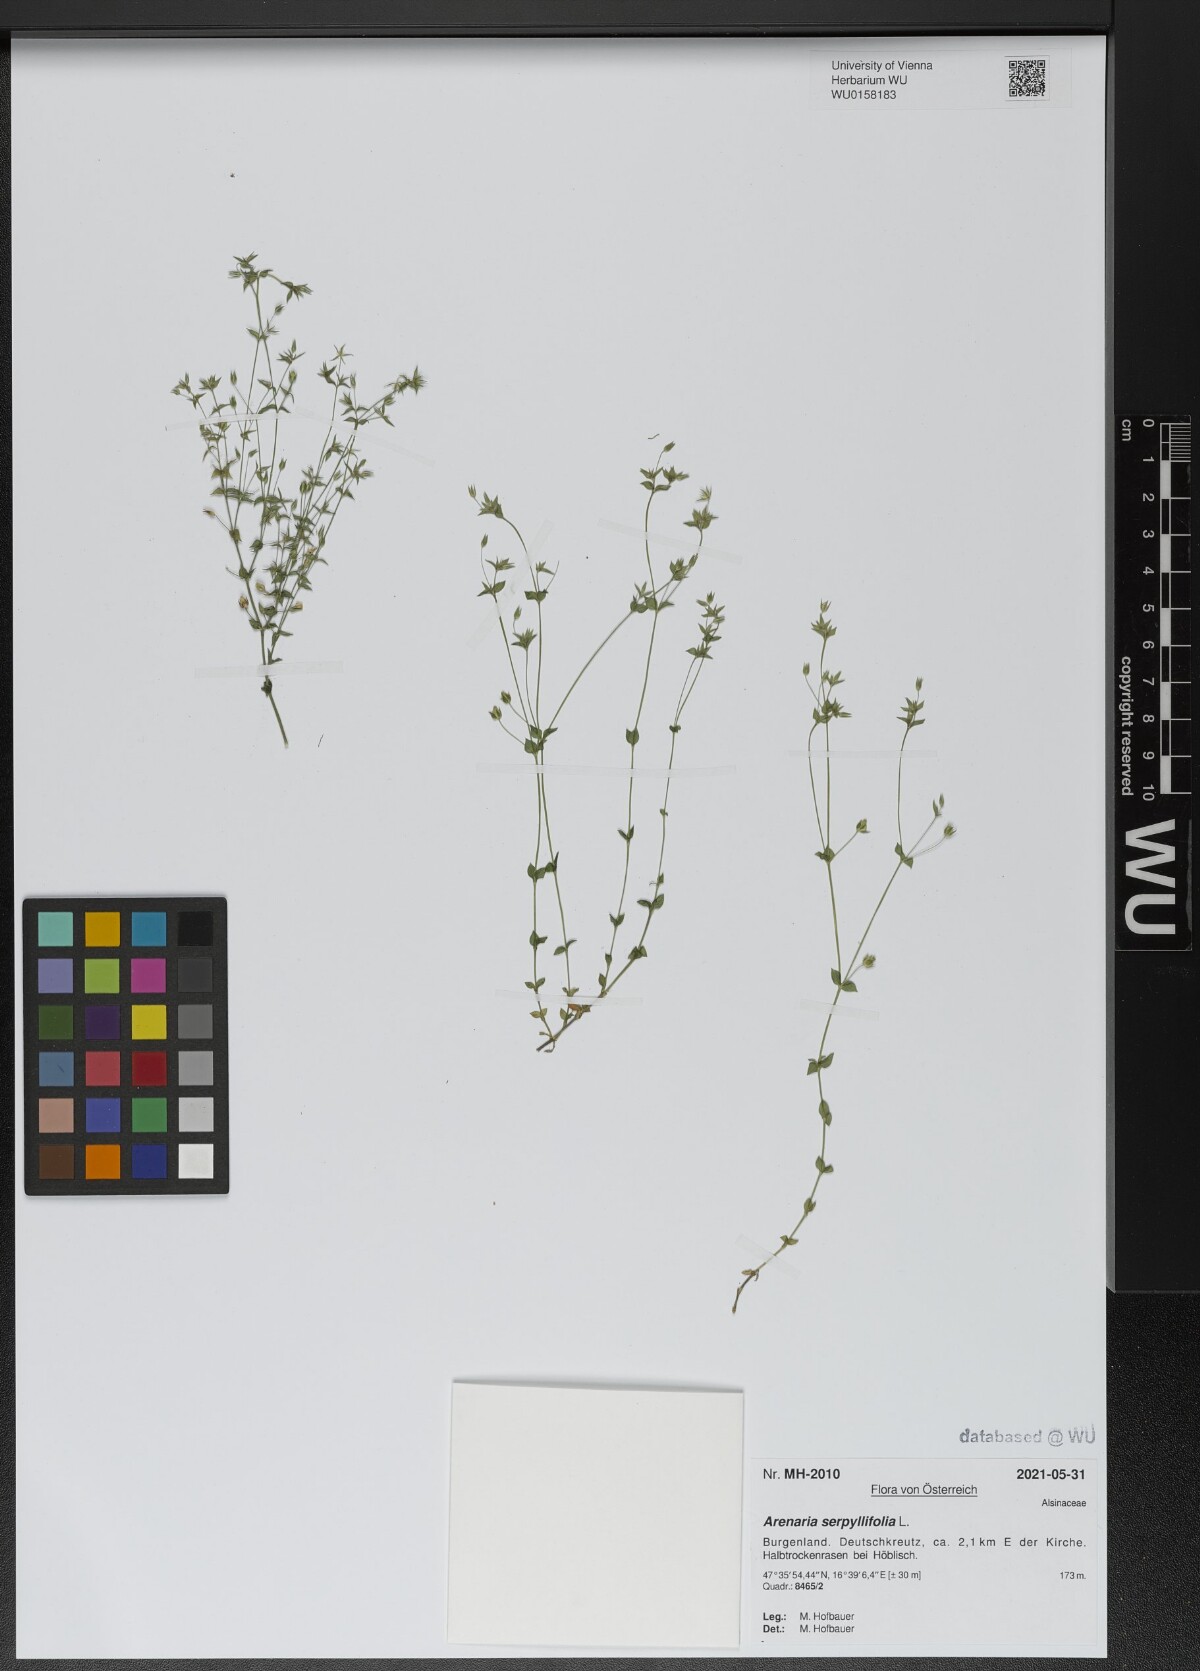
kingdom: Plantae
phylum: Tracheophyta
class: Magnoliopsida
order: Caryophyllales
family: Caryophyllaceae
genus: Arenaria
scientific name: Arenaria serpyllifolia
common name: Thyme-leaved sandwort
